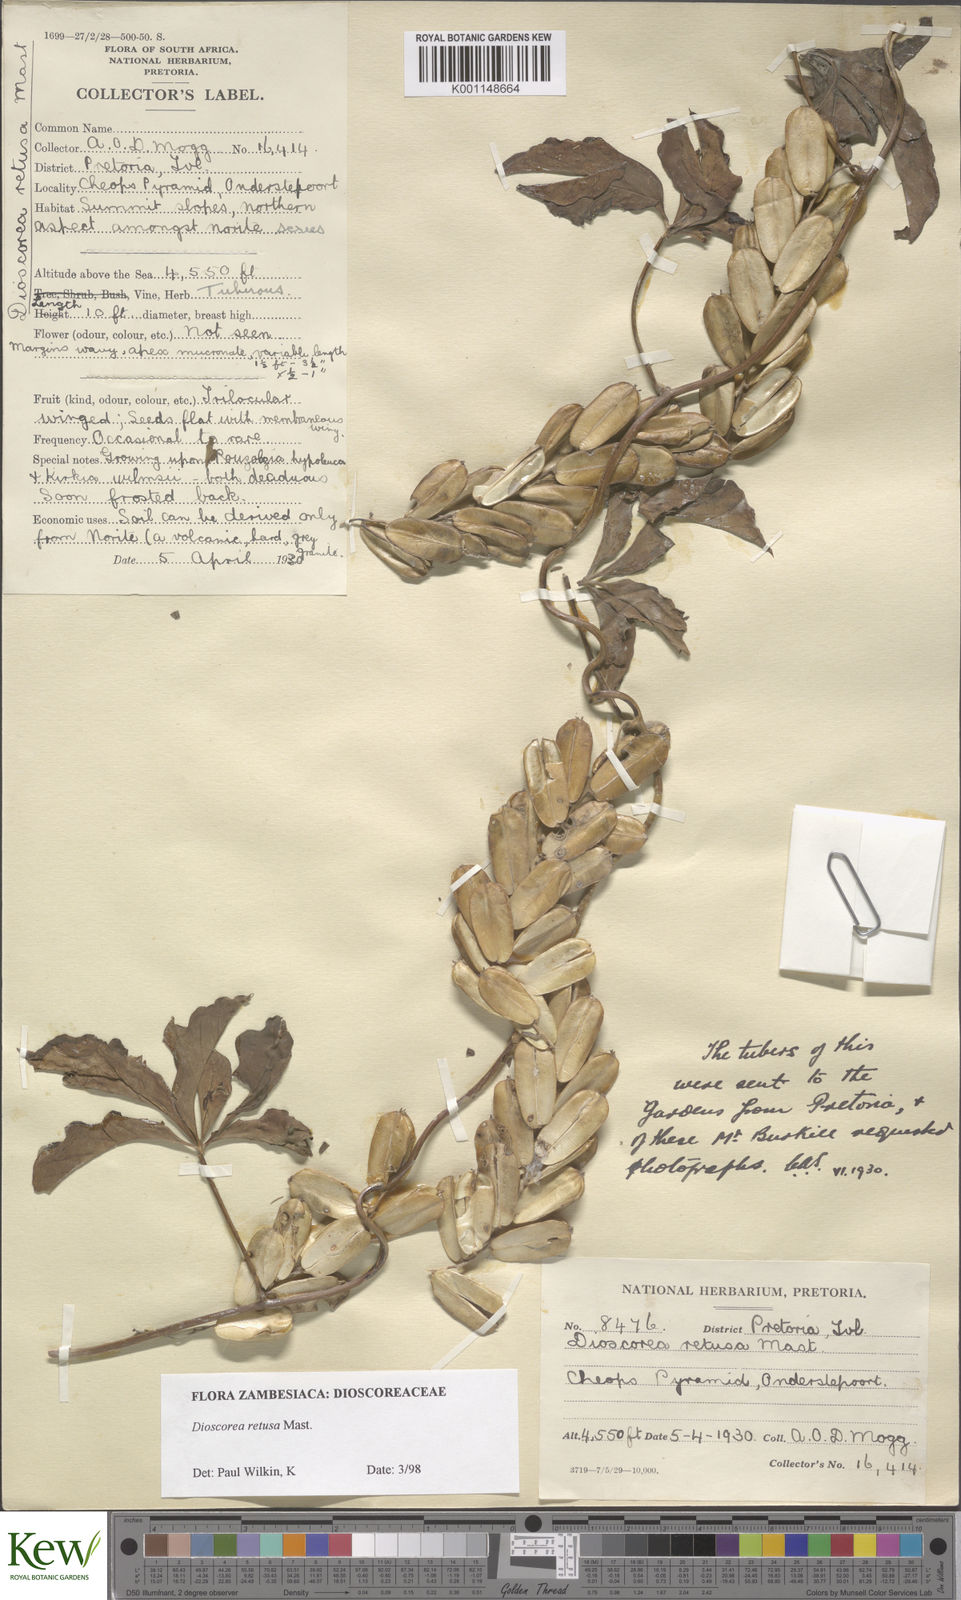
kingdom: Plantae
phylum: Tracheophyta
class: Liliopsida
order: Dioscoreales
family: Dioscoreaceae
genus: Dioscorea
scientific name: Dioscorea retusa
